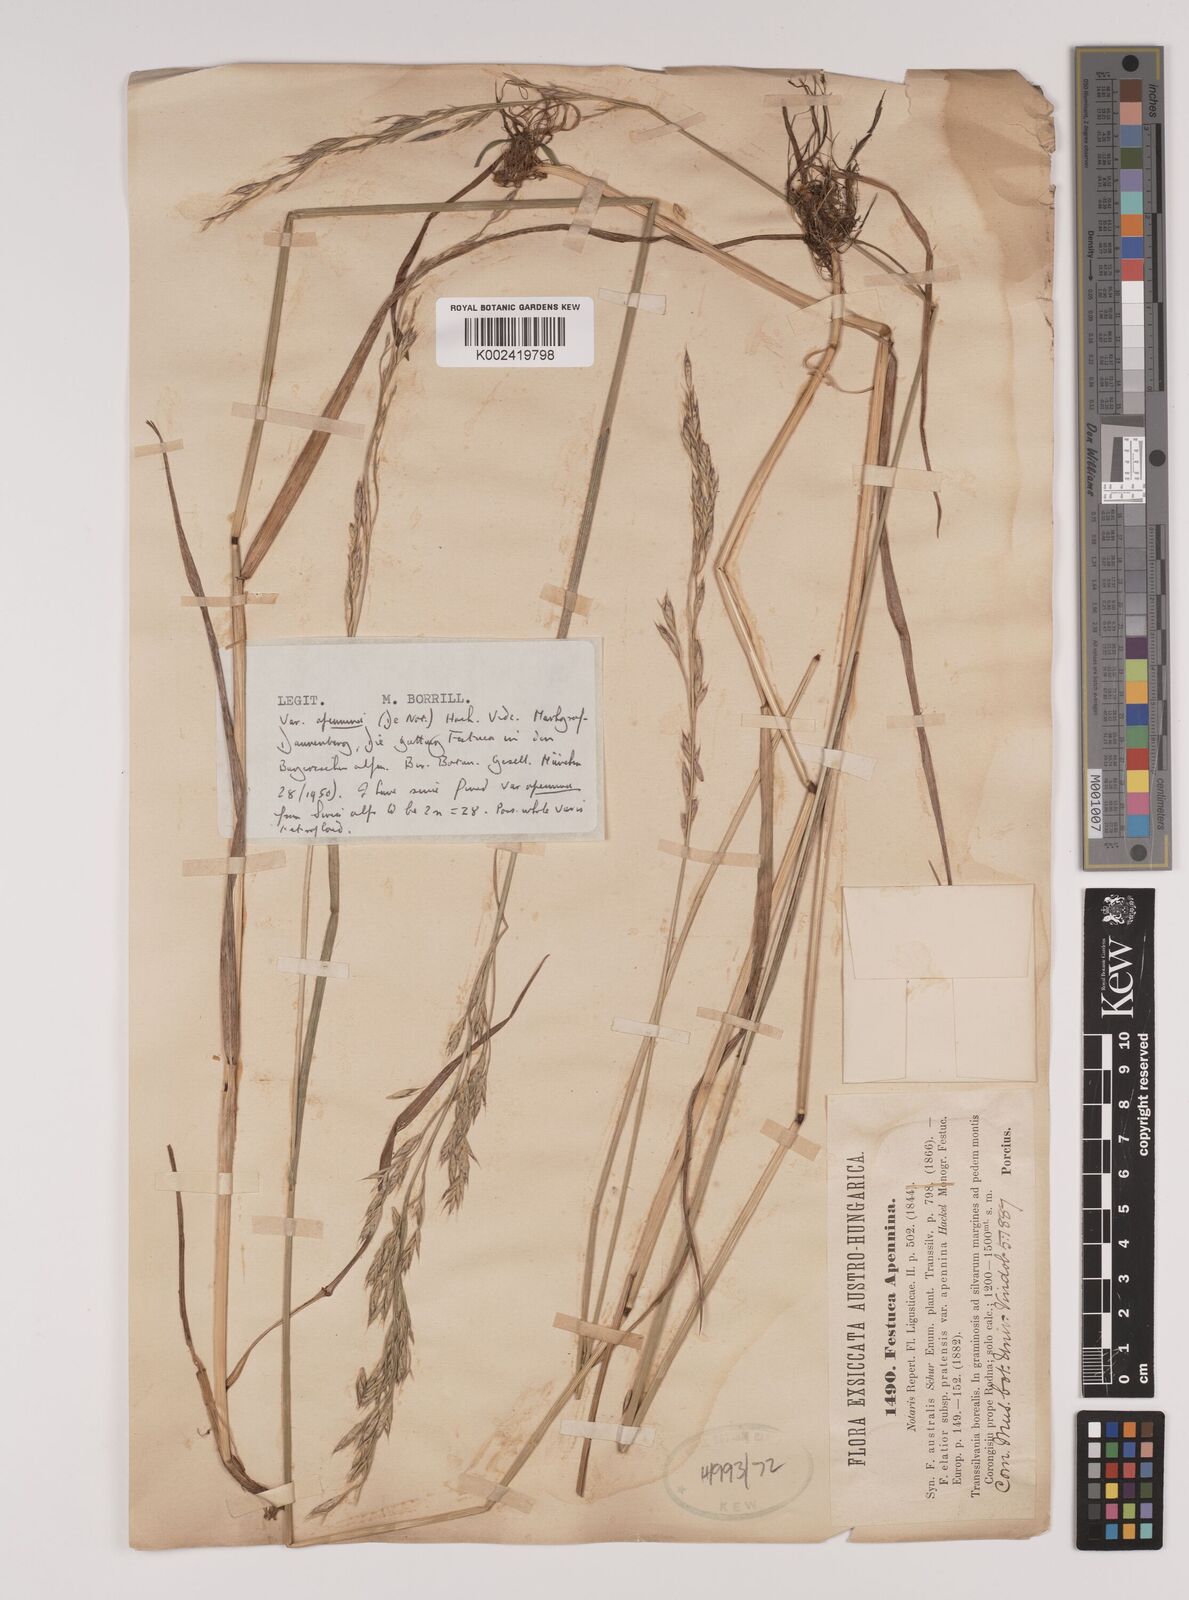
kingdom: Plantae
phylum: Tracheophyta
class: Liliopsida
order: Poales
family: Poaceae
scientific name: Poaceae
